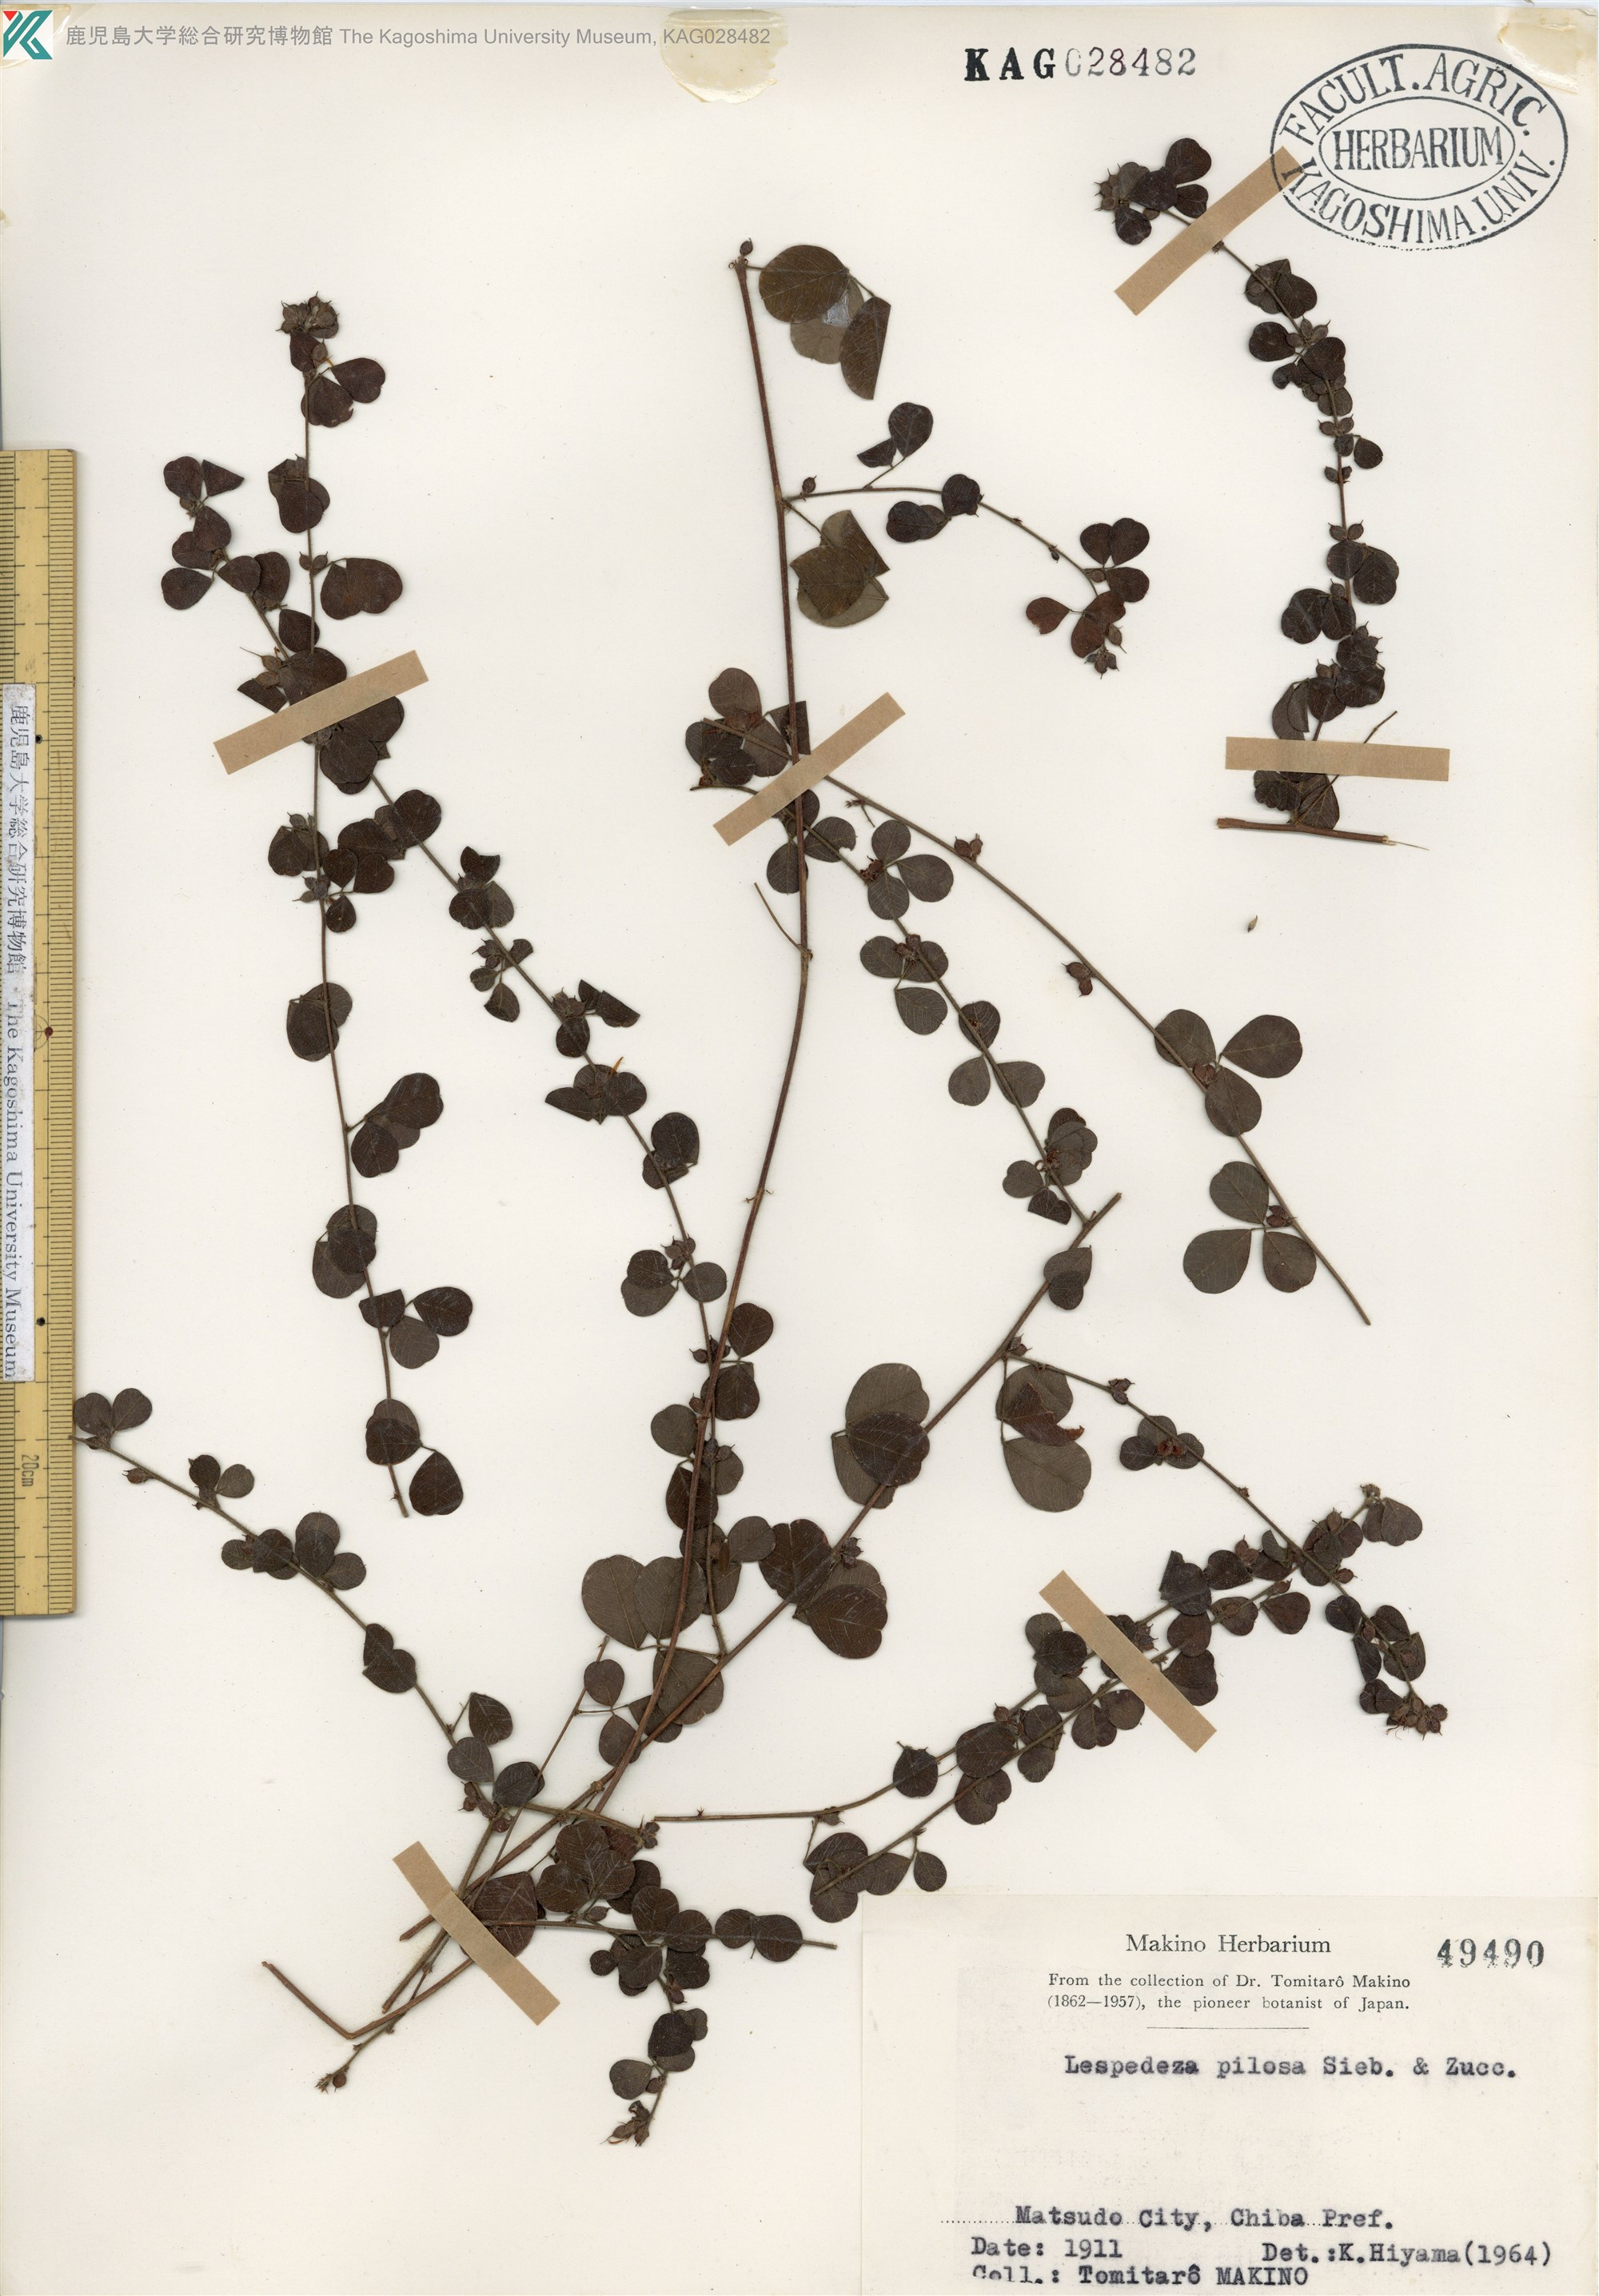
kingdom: Plantae
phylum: Tracheophyta
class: Magnoliopsida
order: Fabales
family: Fabaceae
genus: Lespedeza
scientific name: Lespedeza pilosa
